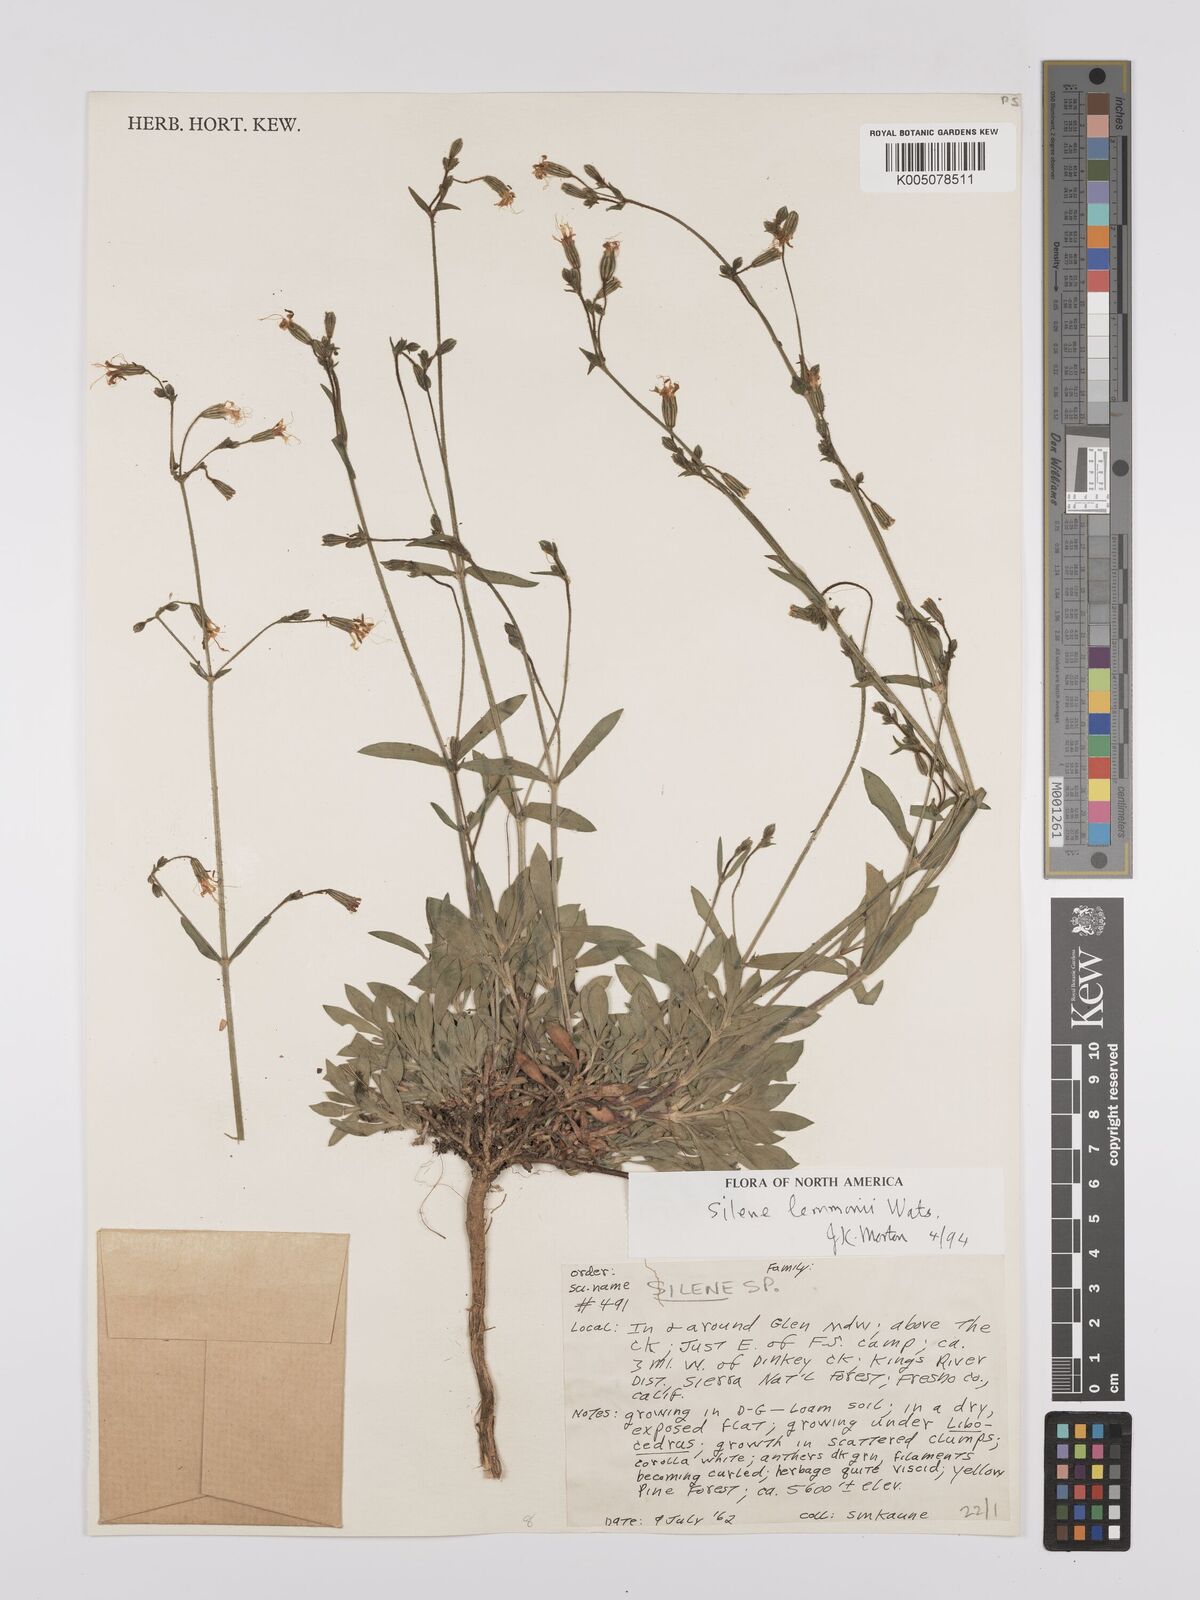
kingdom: Plantae
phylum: Tracheophyta
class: Magnoliopsida
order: Caryophyllales
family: Caryophyllaceae
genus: Silene
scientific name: Silene lemmonii
